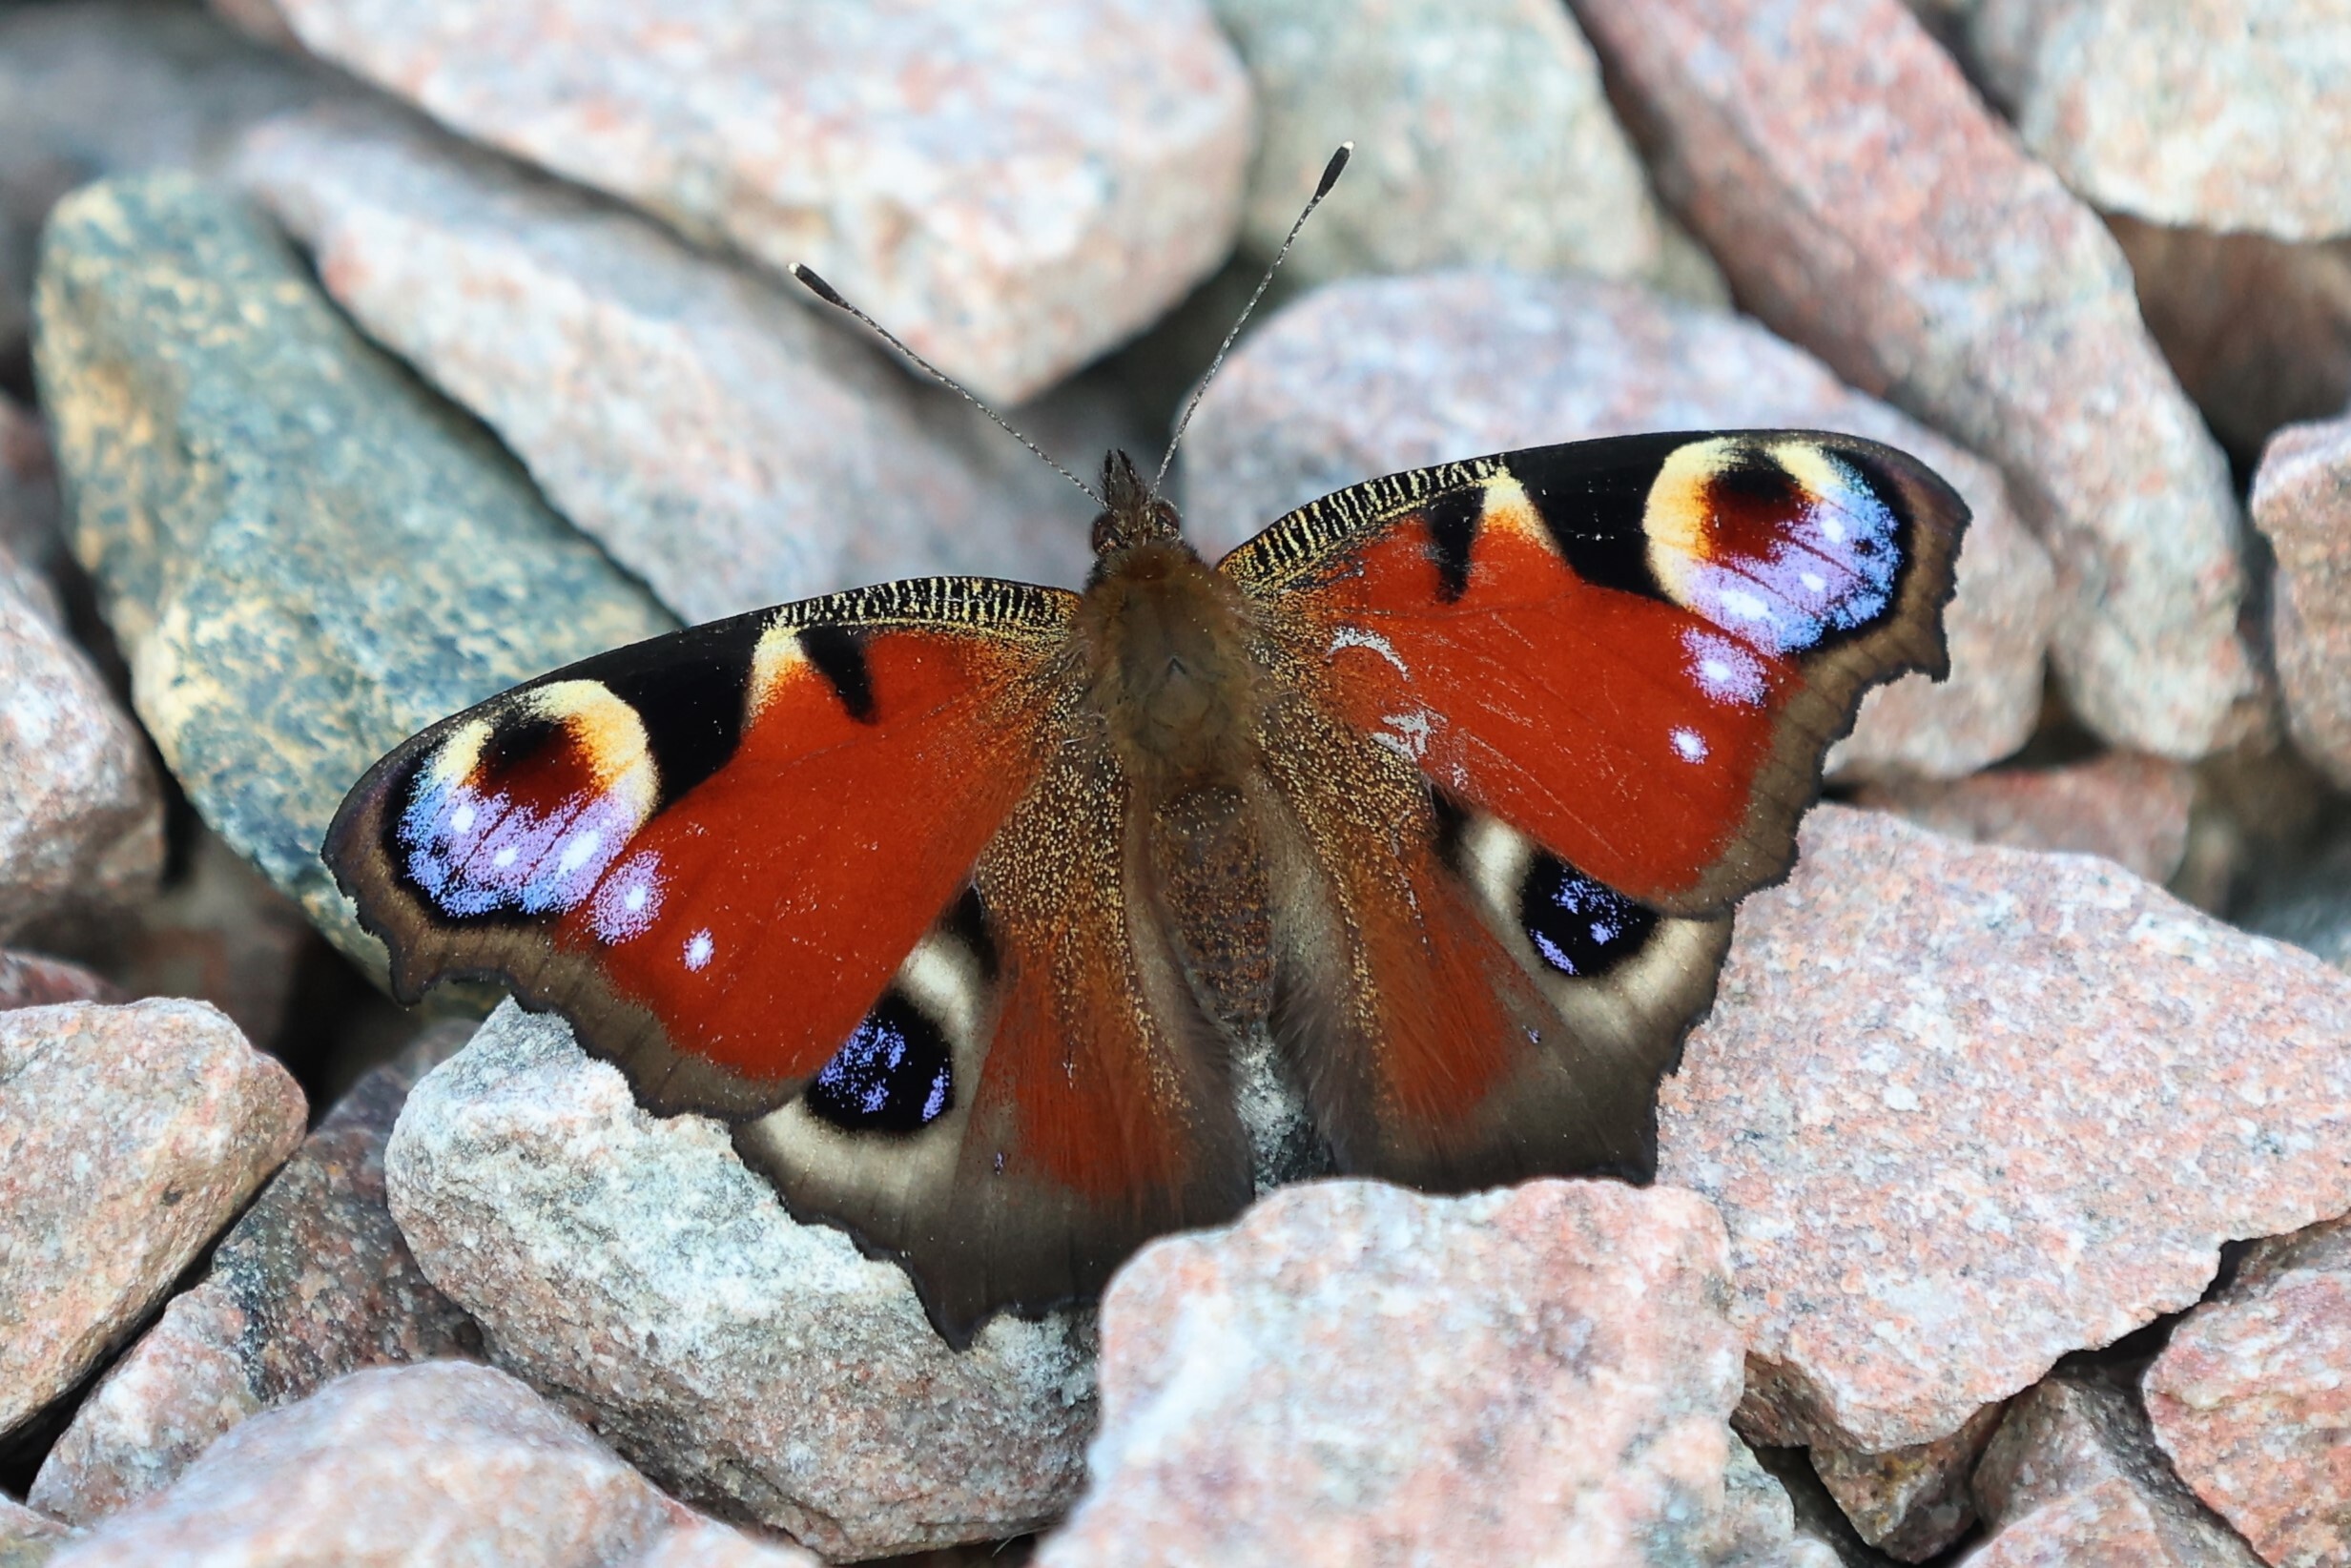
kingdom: Animalia
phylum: Arthropoda
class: Insecta
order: Lepidoptera
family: Nymphalidae
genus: Aglais
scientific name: Aglais io
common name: Peacock
